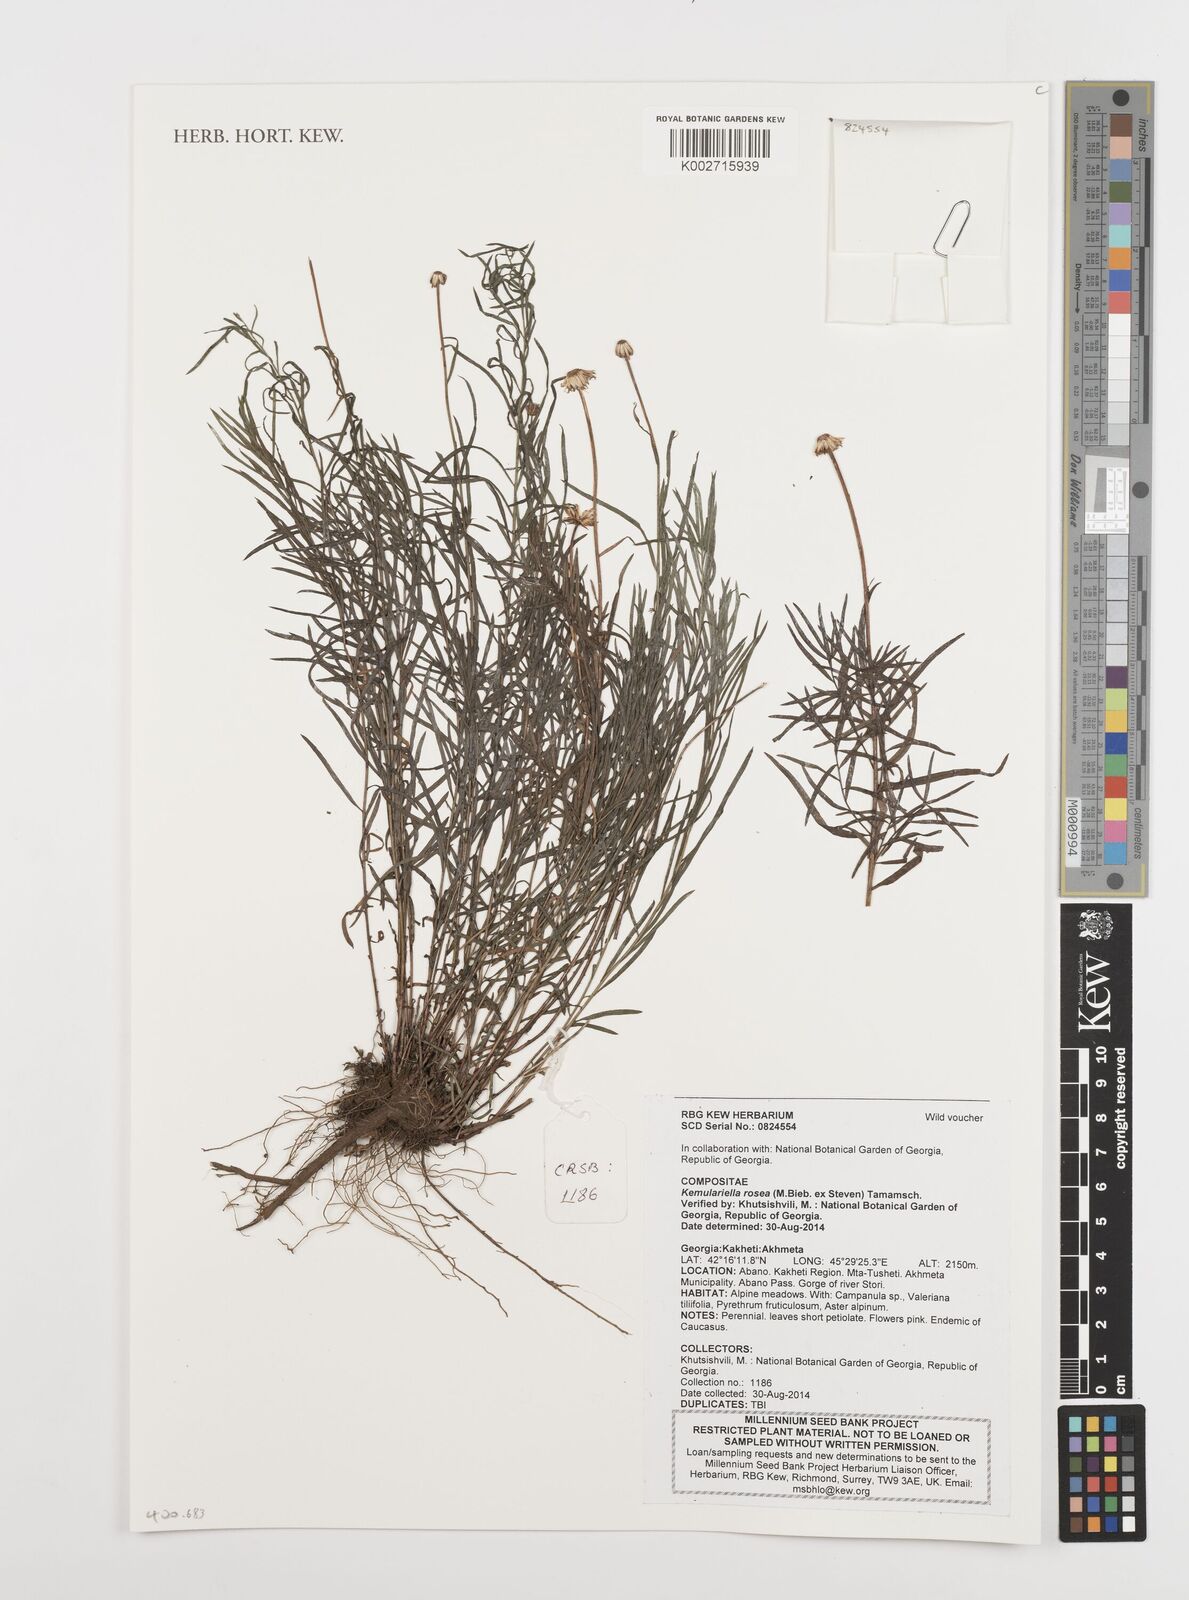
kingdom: Plantae
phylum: Tracheophyta
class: Magnoliopsida
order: Asterales
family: Asteraceae
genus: Kemulariella
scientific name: Kemulariella rosea
